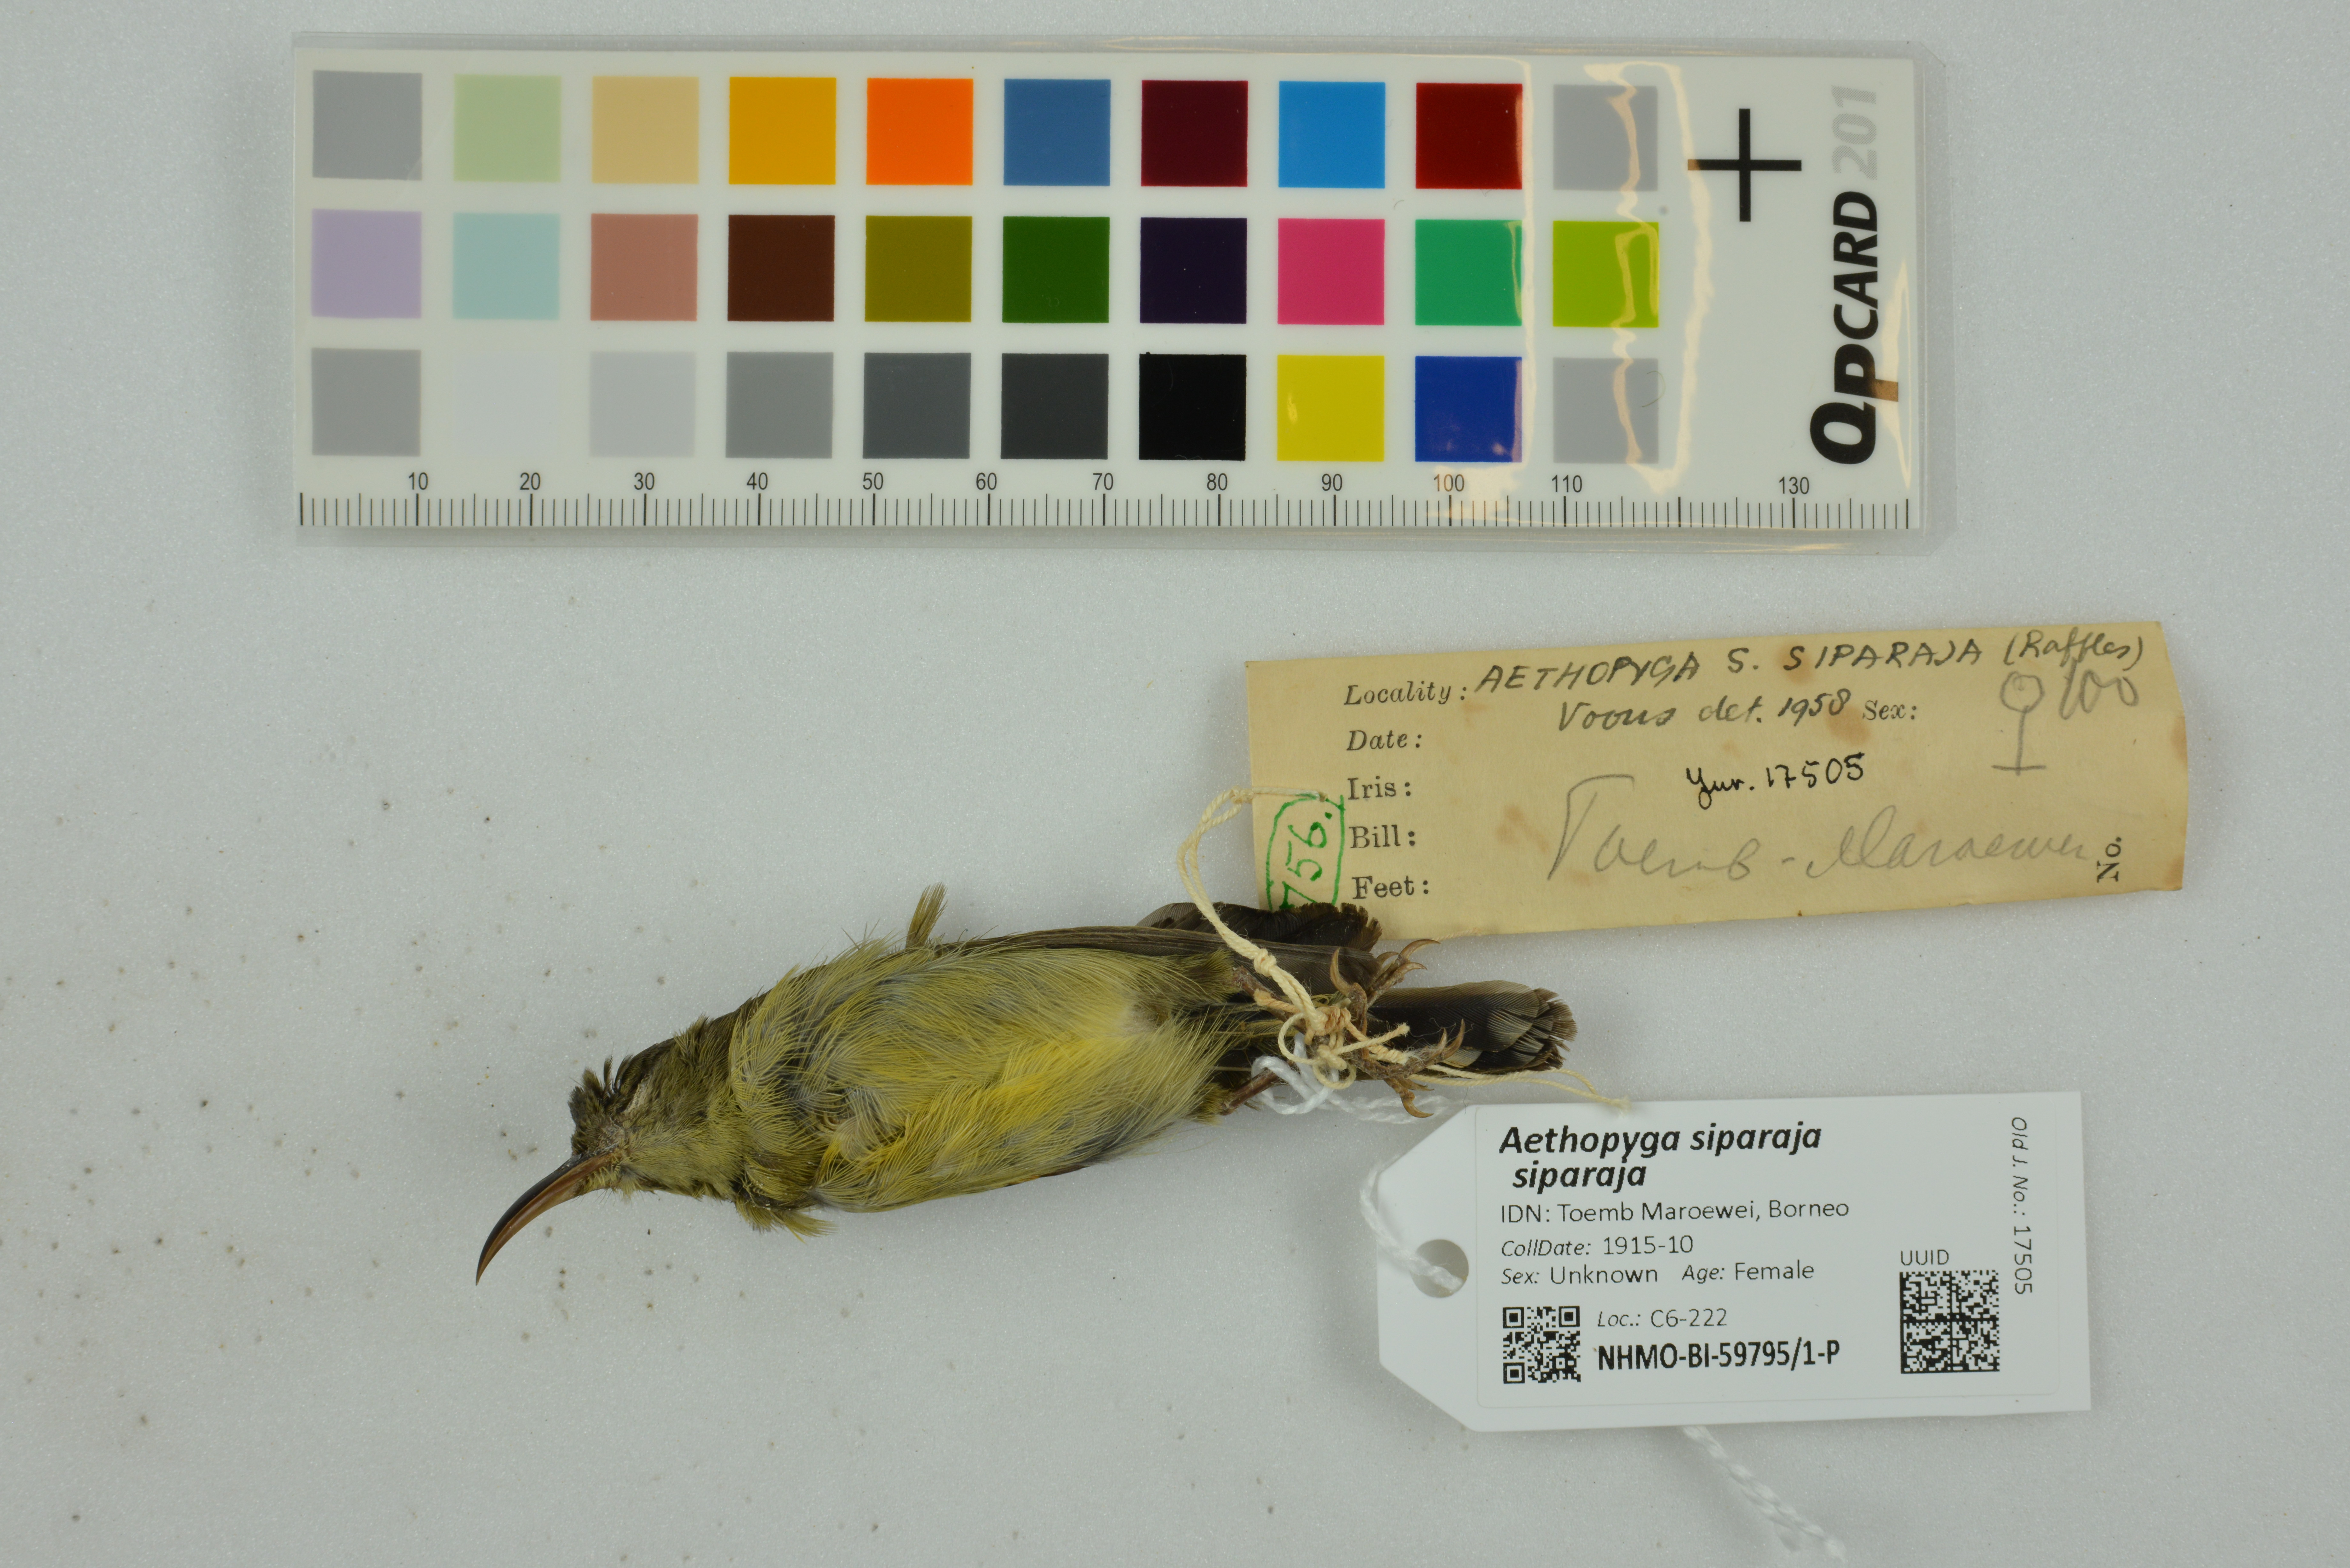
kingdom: Animalia
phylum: Chordata
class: Aves
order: Passeriformes
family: Nectariniidae
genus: Aethopyga
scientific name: Aethopyga siparaja
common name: Crimson sunbird
